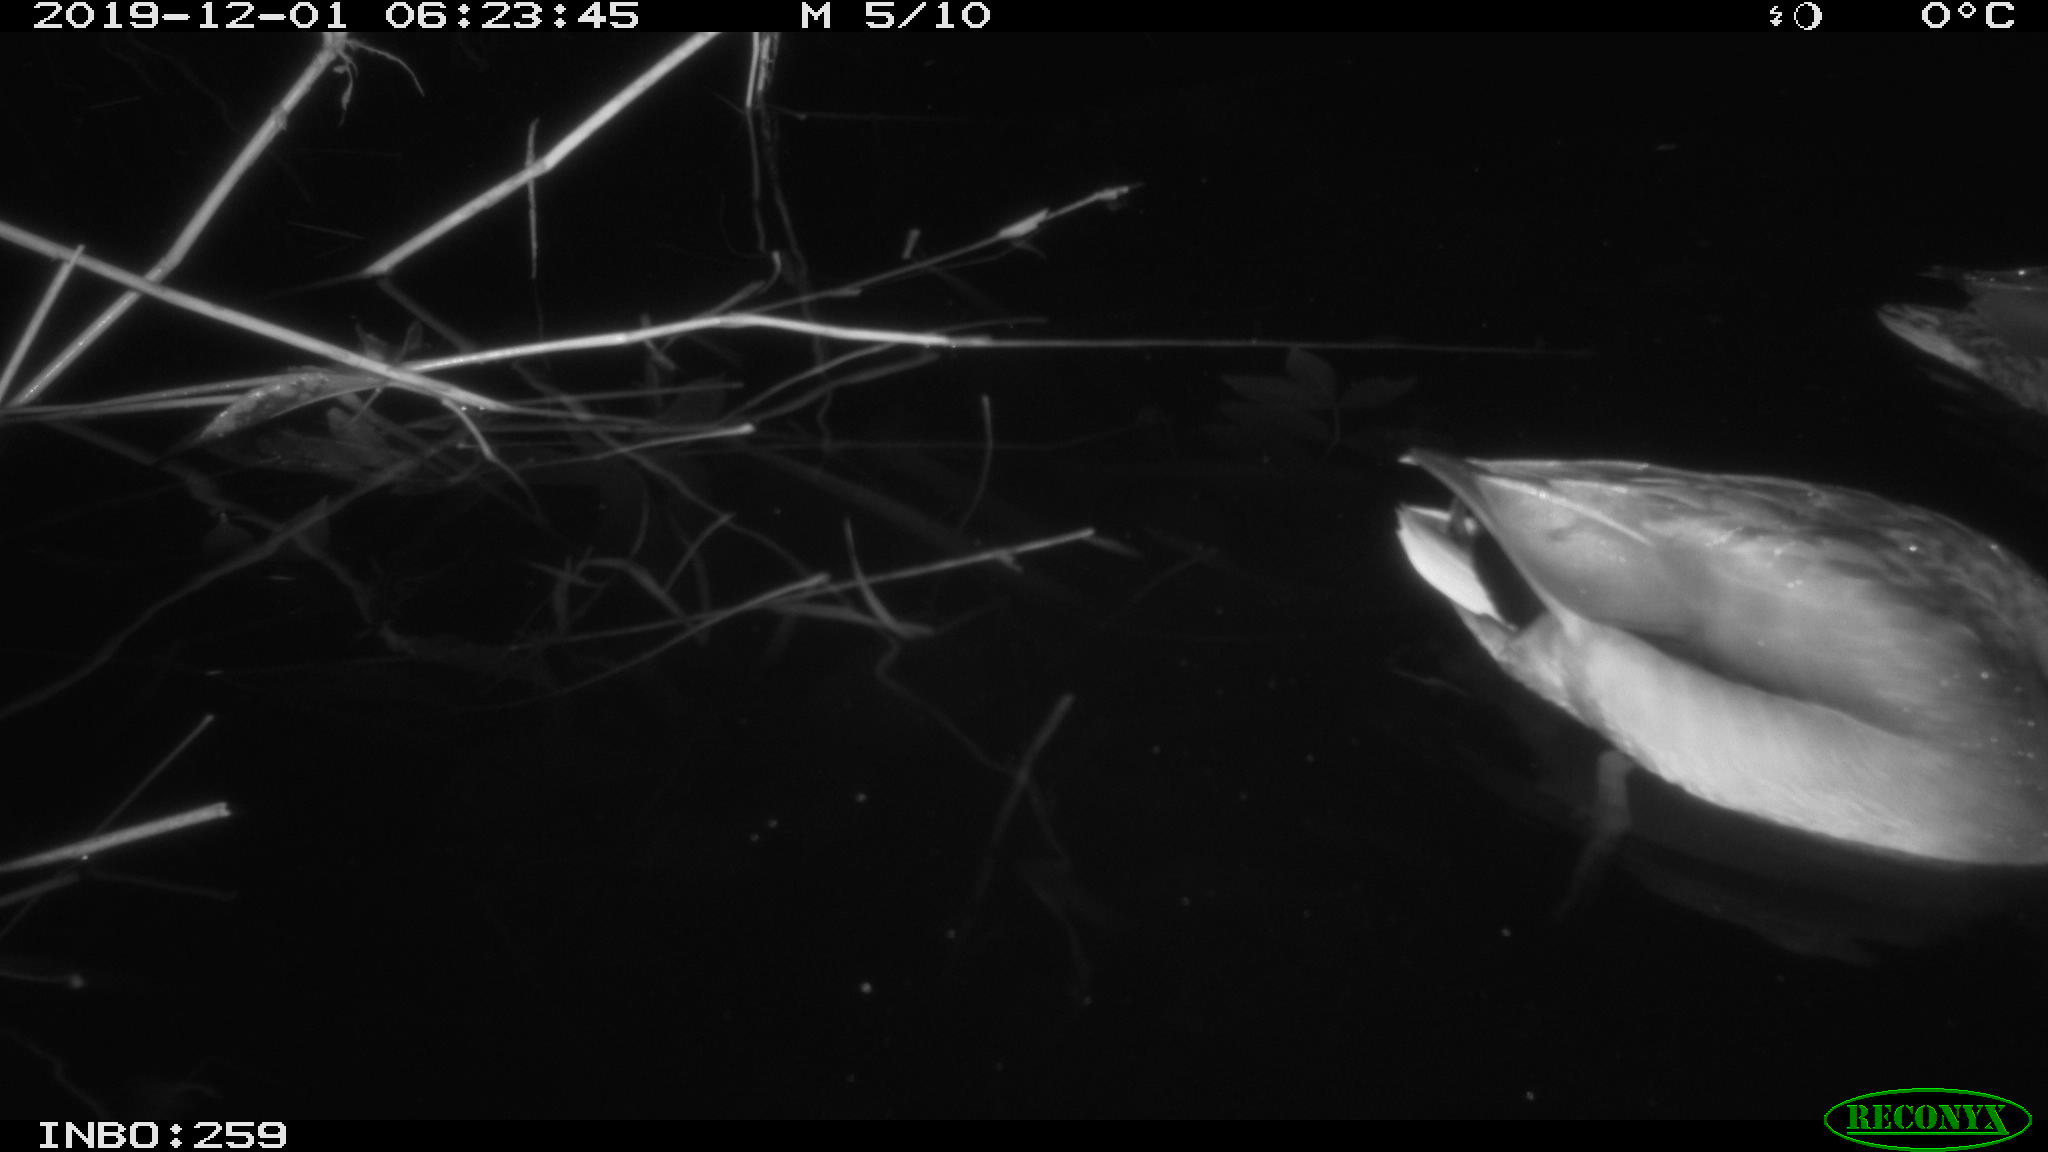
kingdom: Animalia
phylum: Chordata
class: Aves
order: Anseriformes
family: Anatidae
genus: Anas
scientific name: Anas platyrhynchos
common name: Mallard
